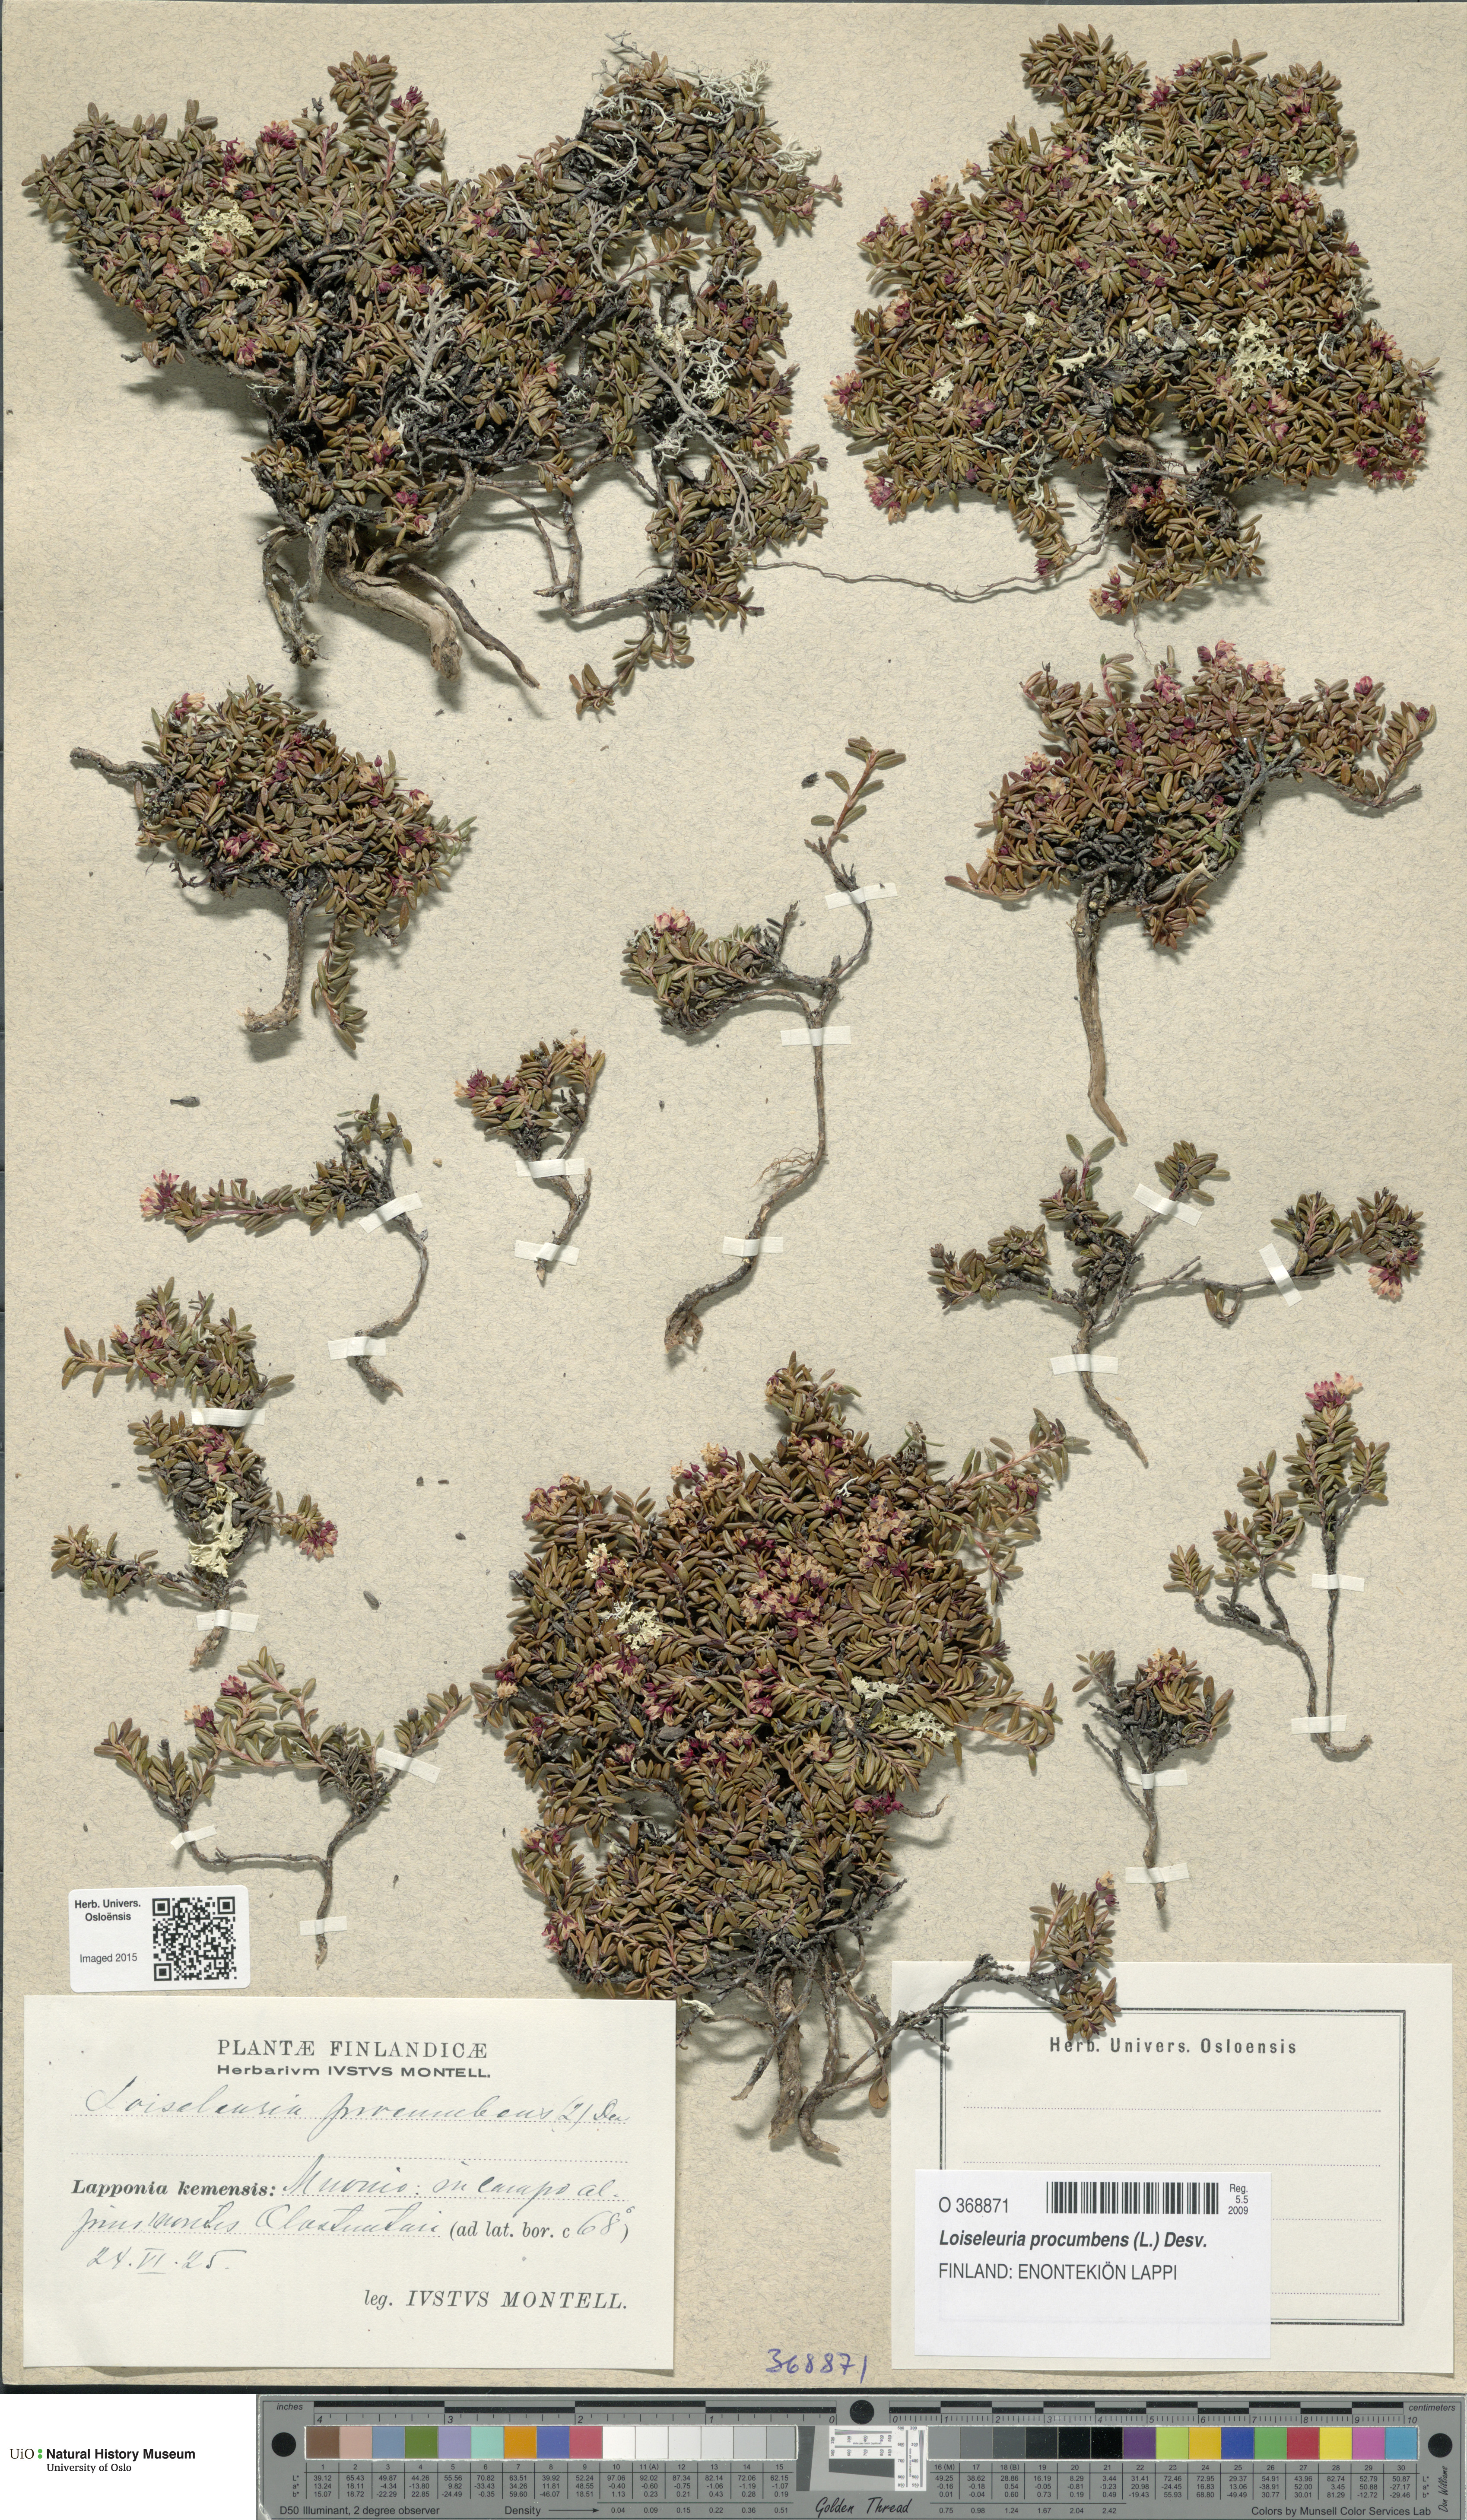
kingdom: Plantae
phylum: Tracheophyta
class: Magnoliopsida
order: Ericales
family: Ericaceae
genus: Kalmia
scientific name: Kalmia procumbens
